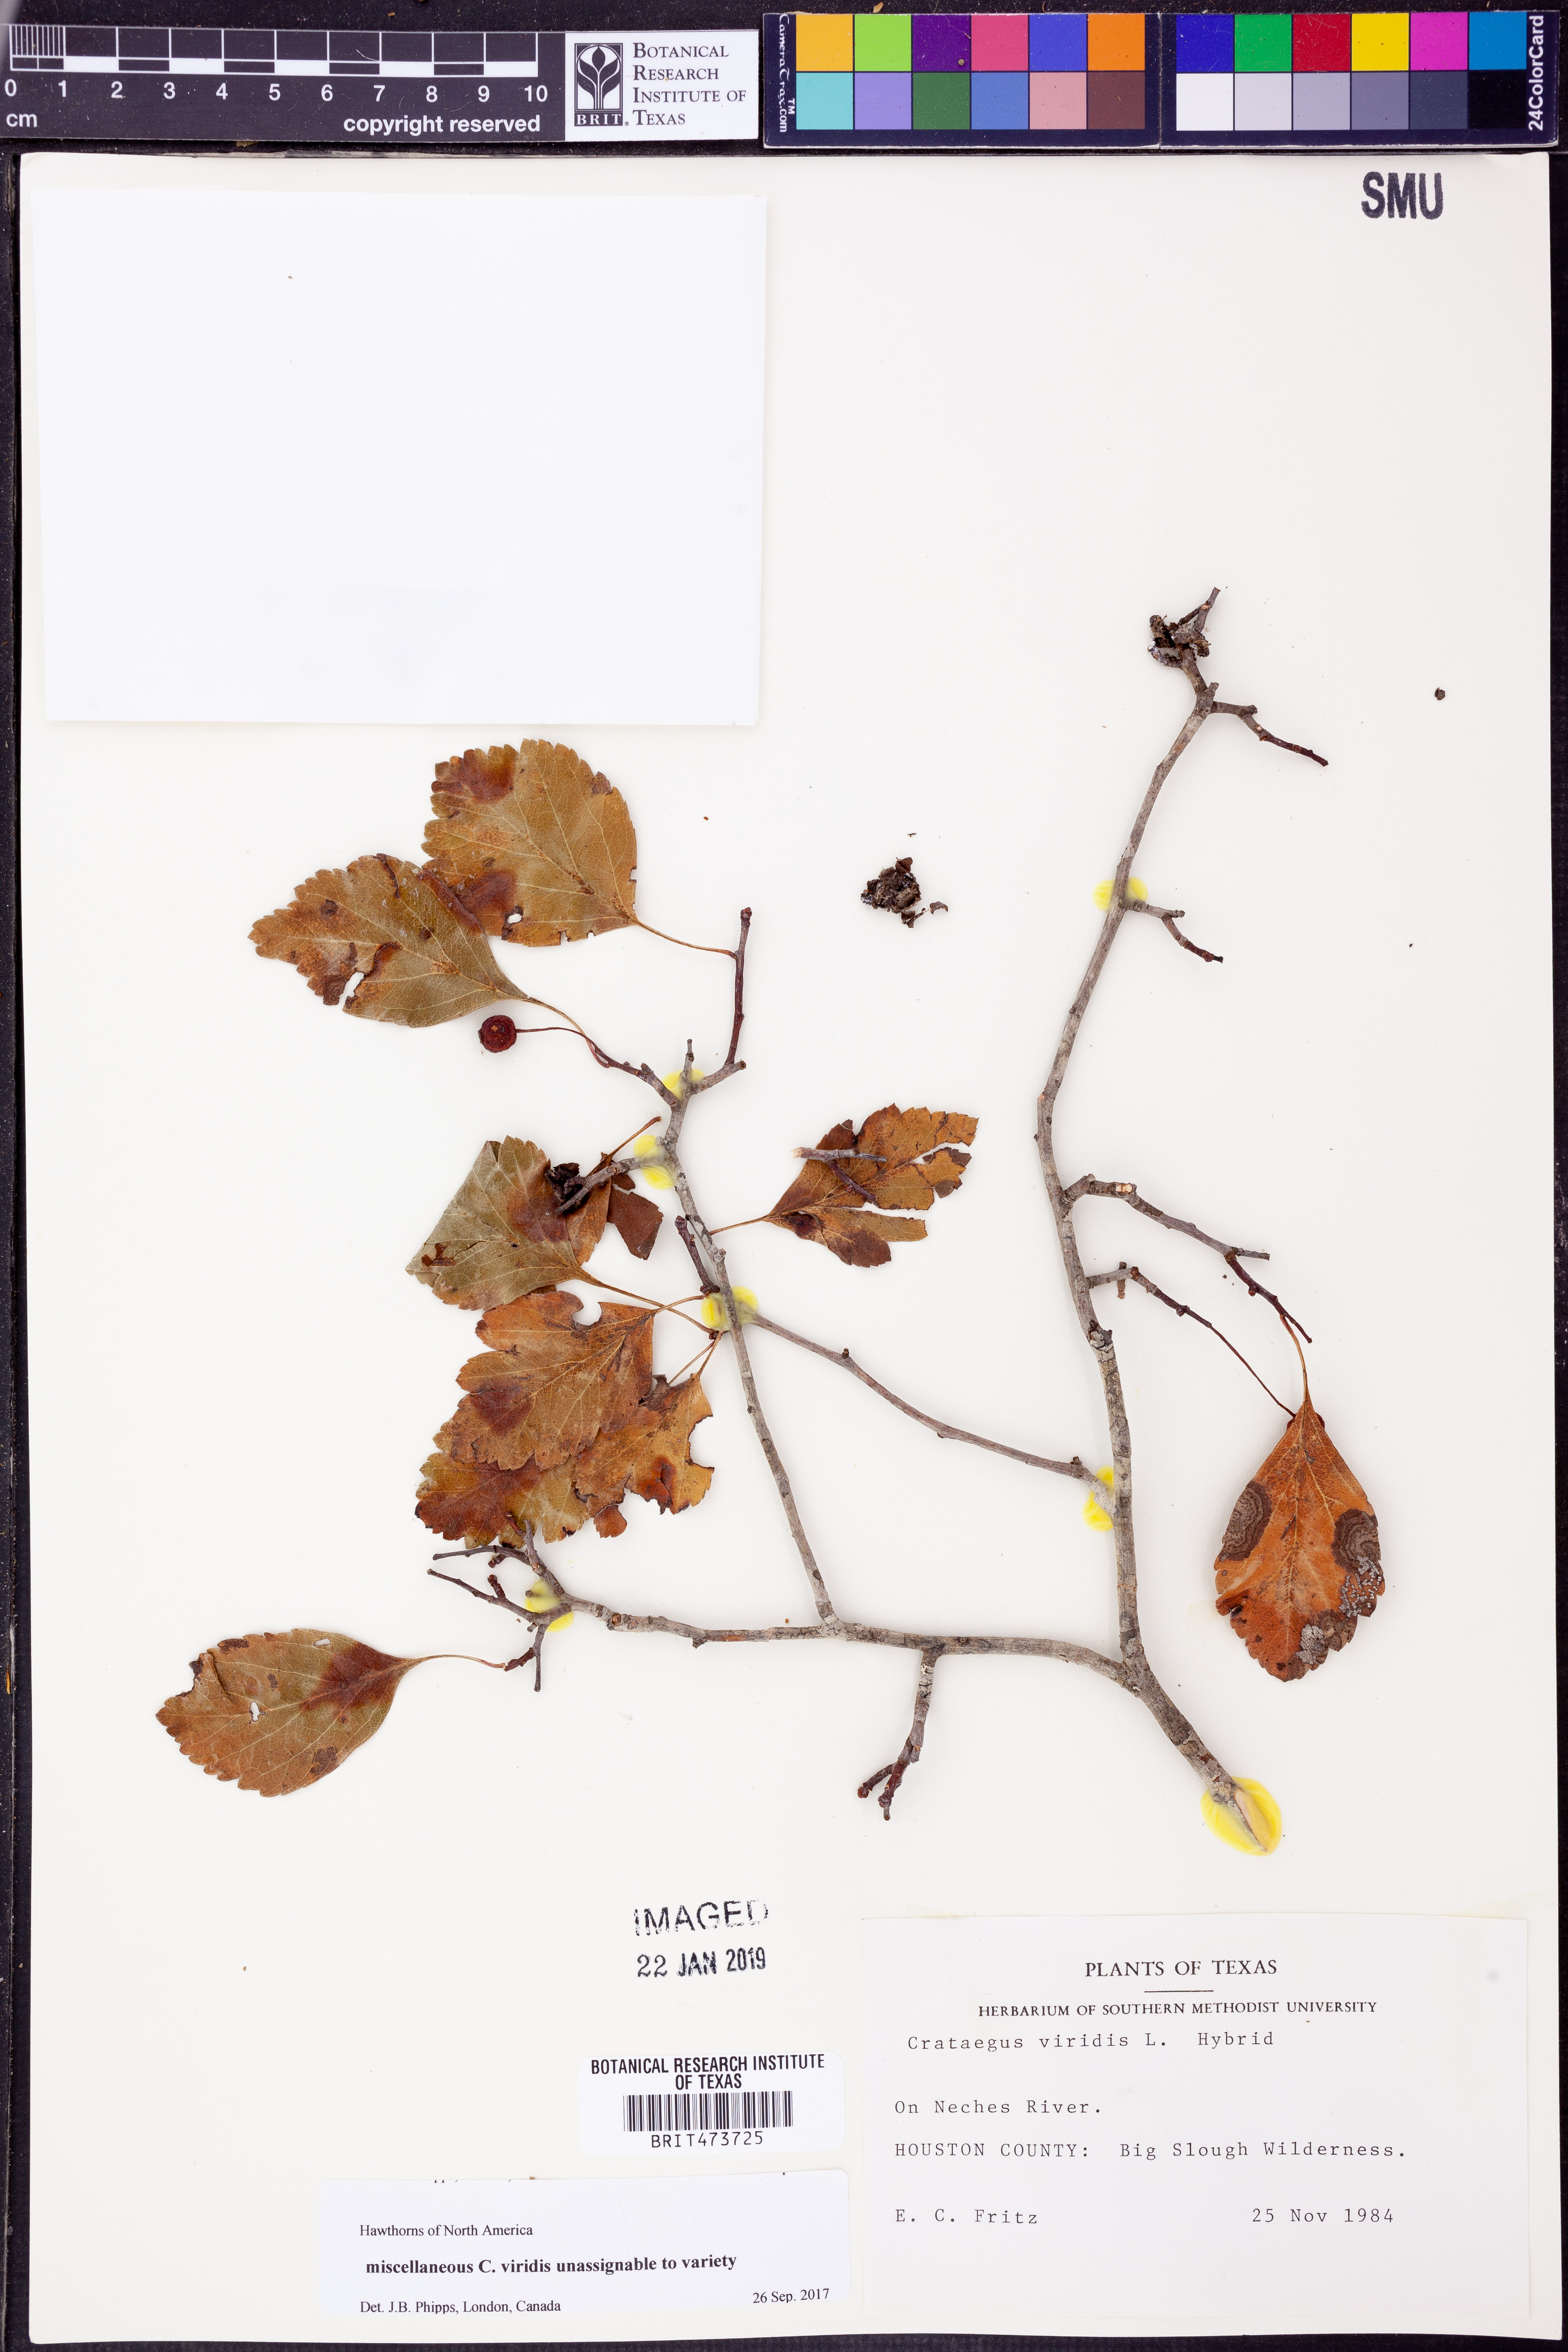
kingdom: Plantae
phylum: Tracheophyta
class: Magnoliopsida
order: Rosales
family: Rosaceae
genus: Crataegus
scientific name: Crataegus viridis
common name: Southernthorn
